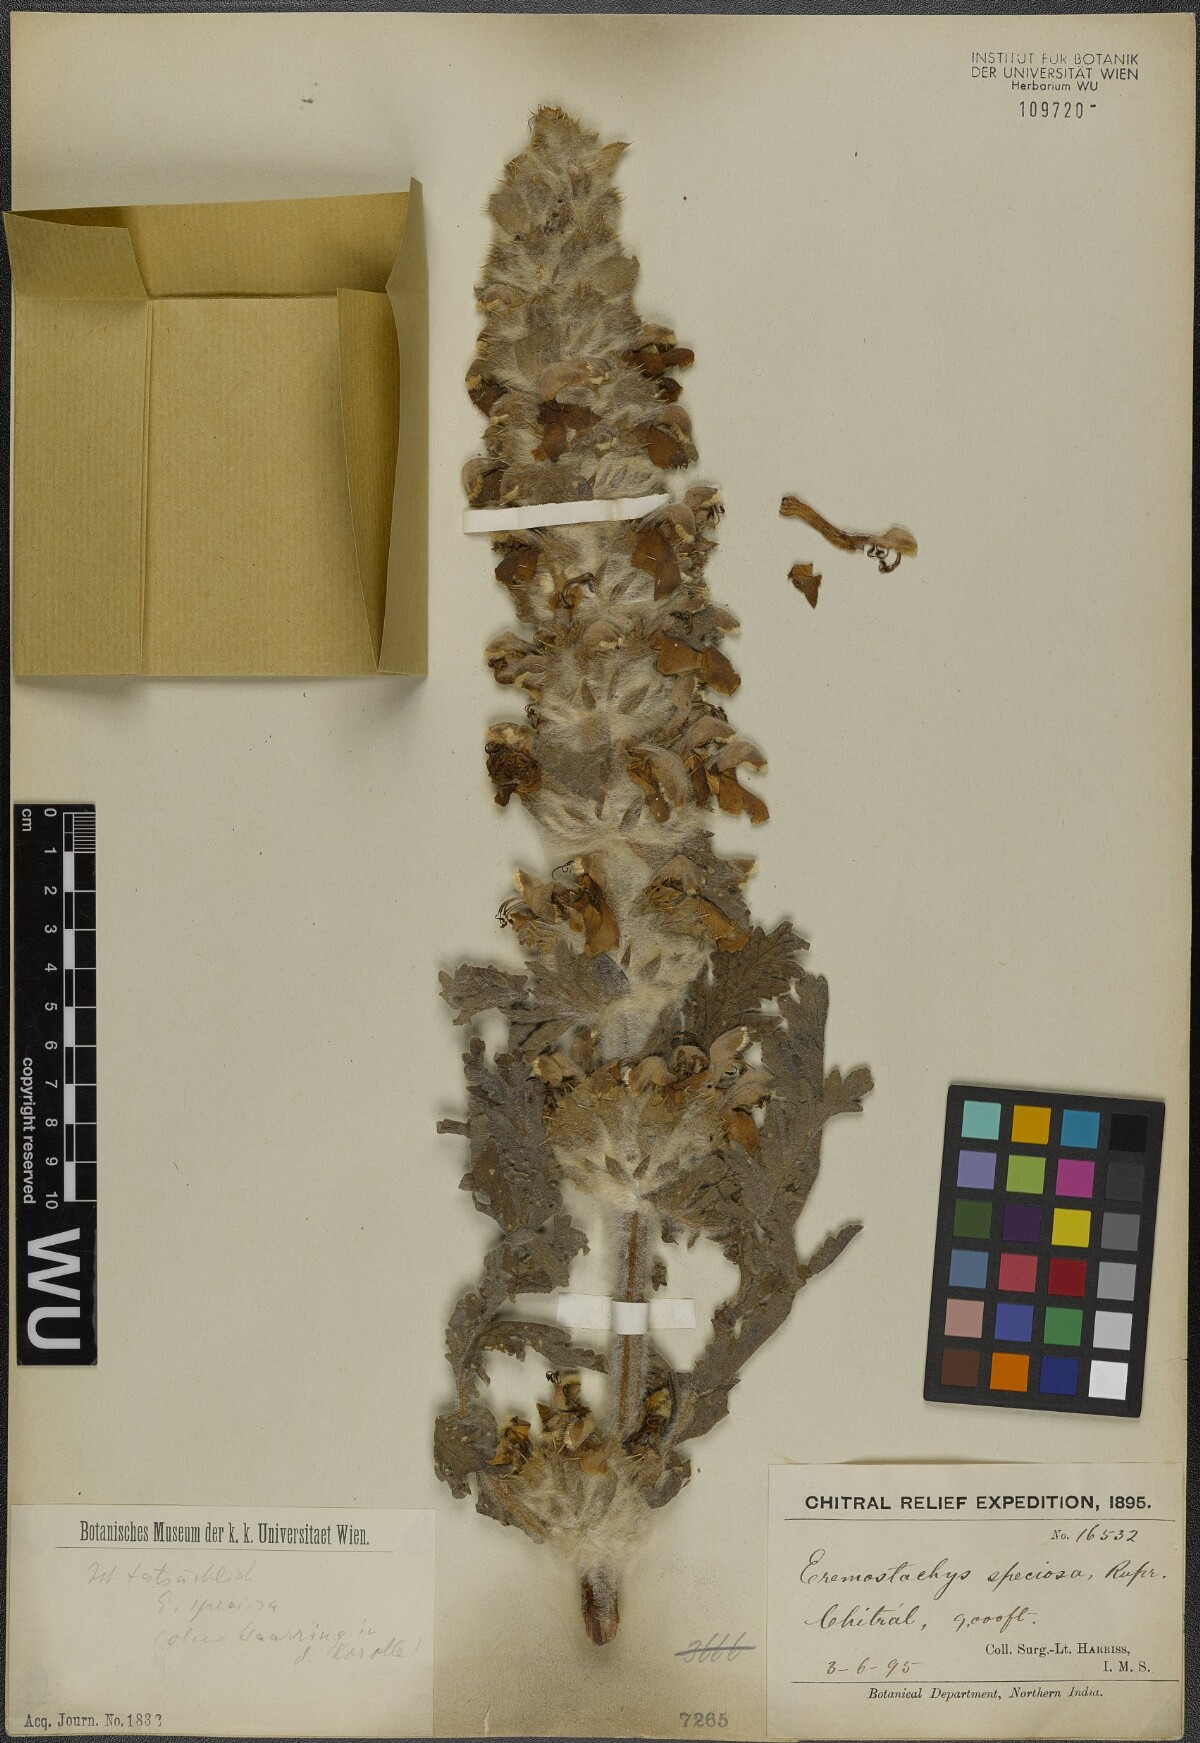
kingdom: Plantae
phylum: Tracheophyta
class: Magnoliopsida
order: Lamiales
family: Lamiaceae
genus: Phlomoides
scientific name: Phlomoides speciosa
